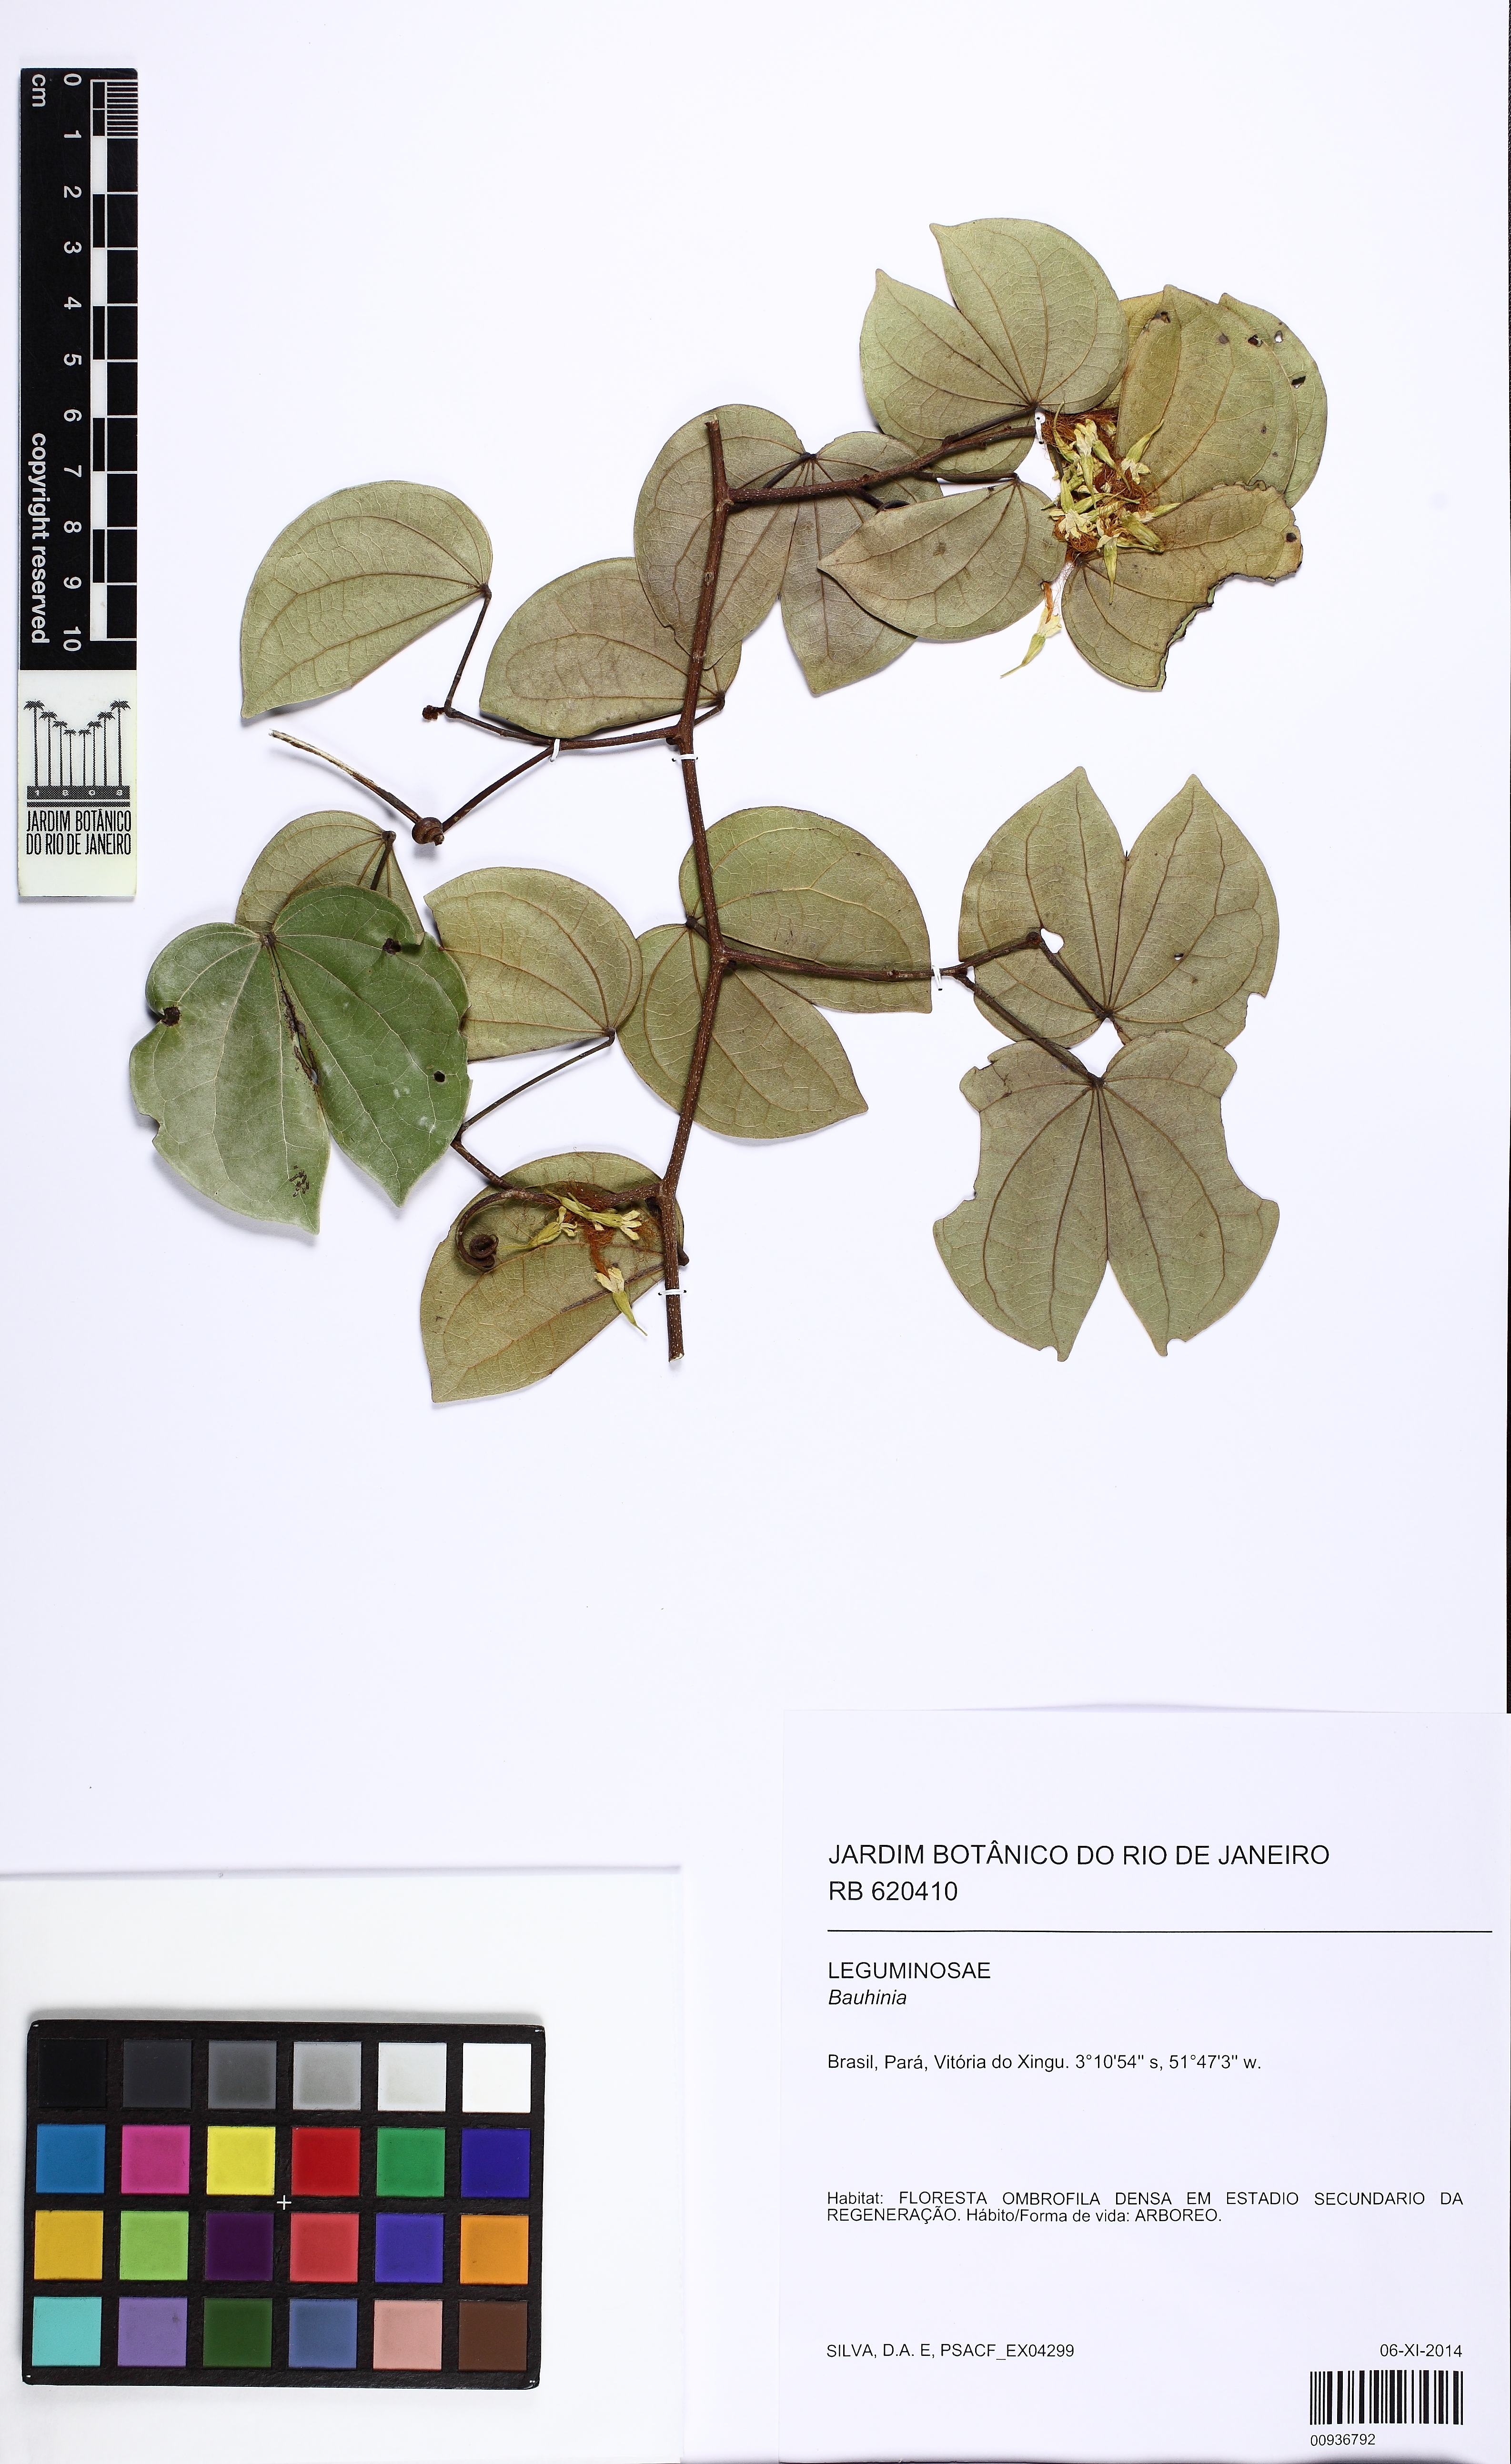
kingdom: Plantae
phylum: Tracheophyta
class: Magnoliopsida
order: Fabales
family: Fabaceae
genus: Schnella
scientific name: Schnella surinamensis
